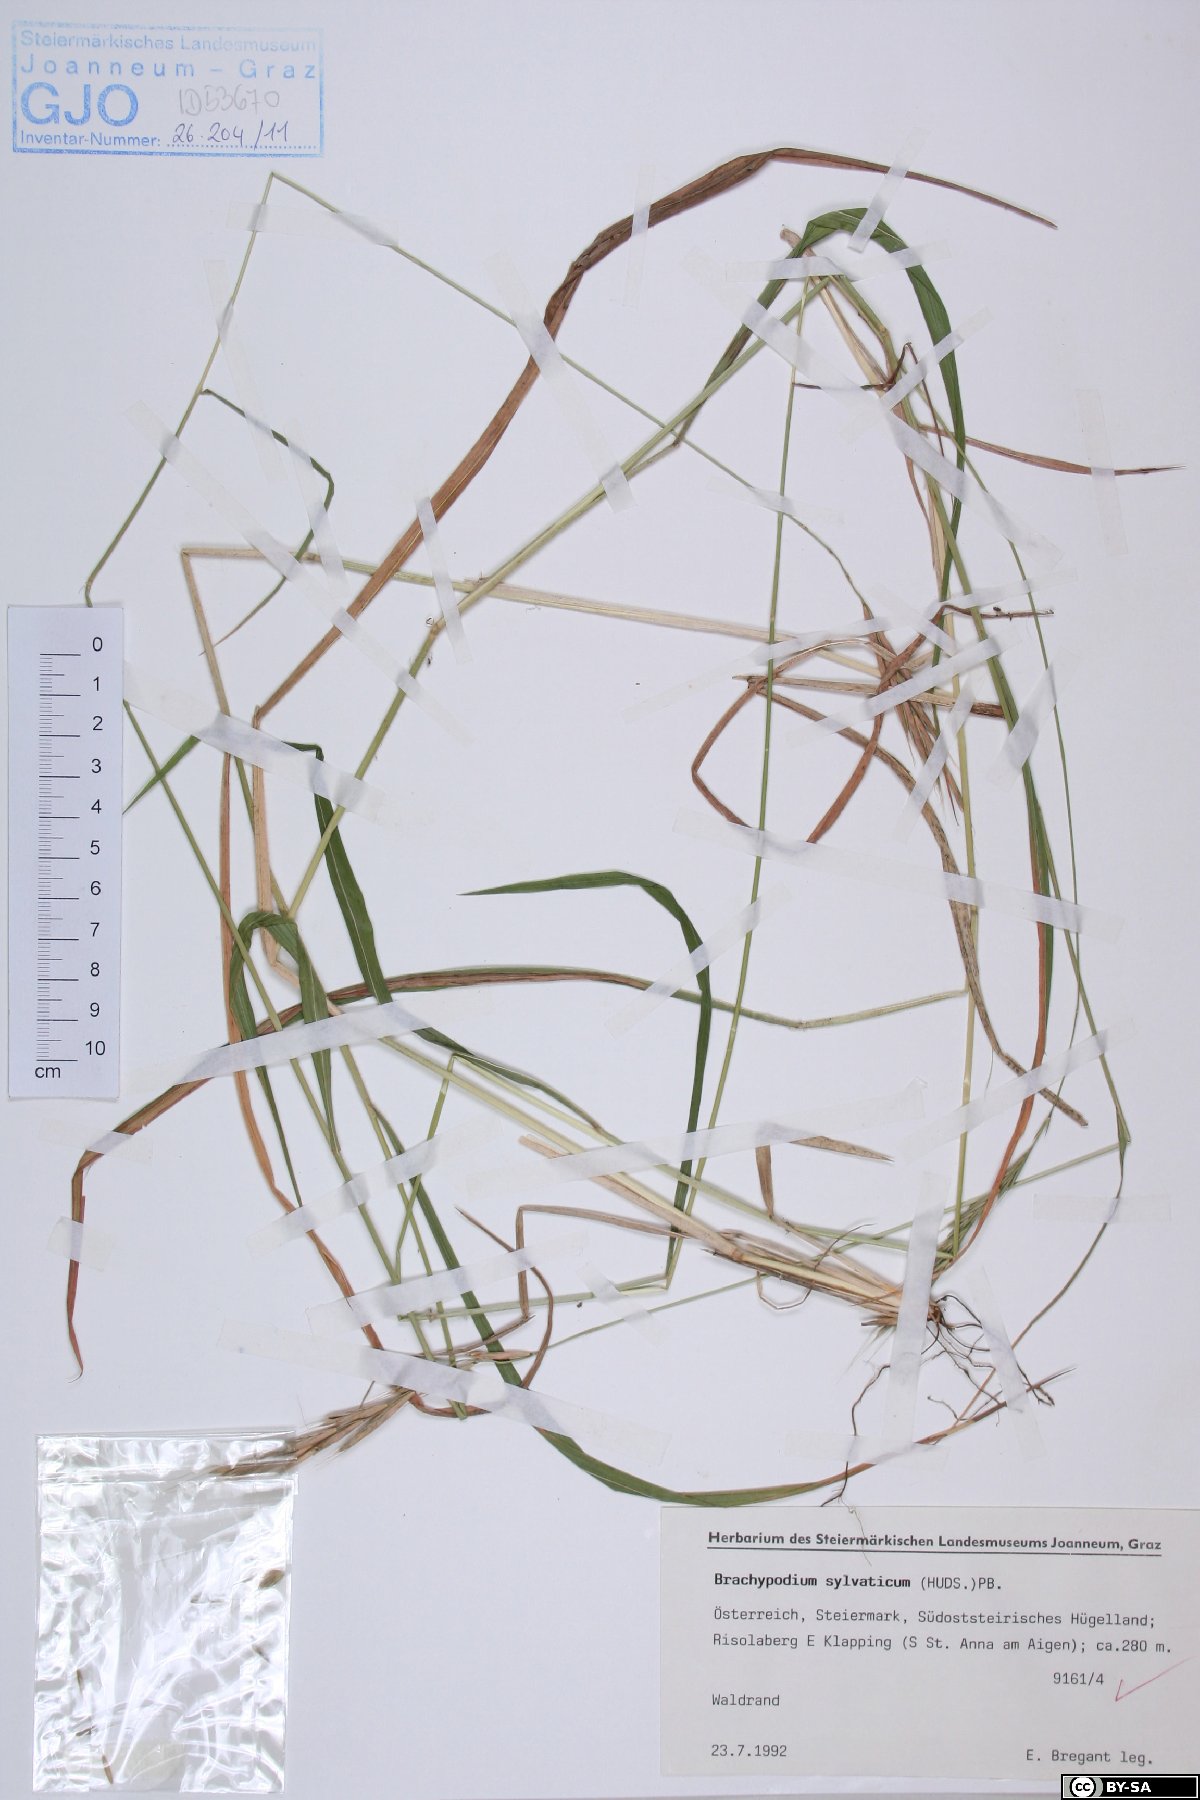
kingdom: Plantae
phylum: Tracheophyta
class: Liliopsida
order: Poales
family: Poaceae
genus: Brachypodium
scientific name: Brachypodium sylvaticum
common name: False-brome
